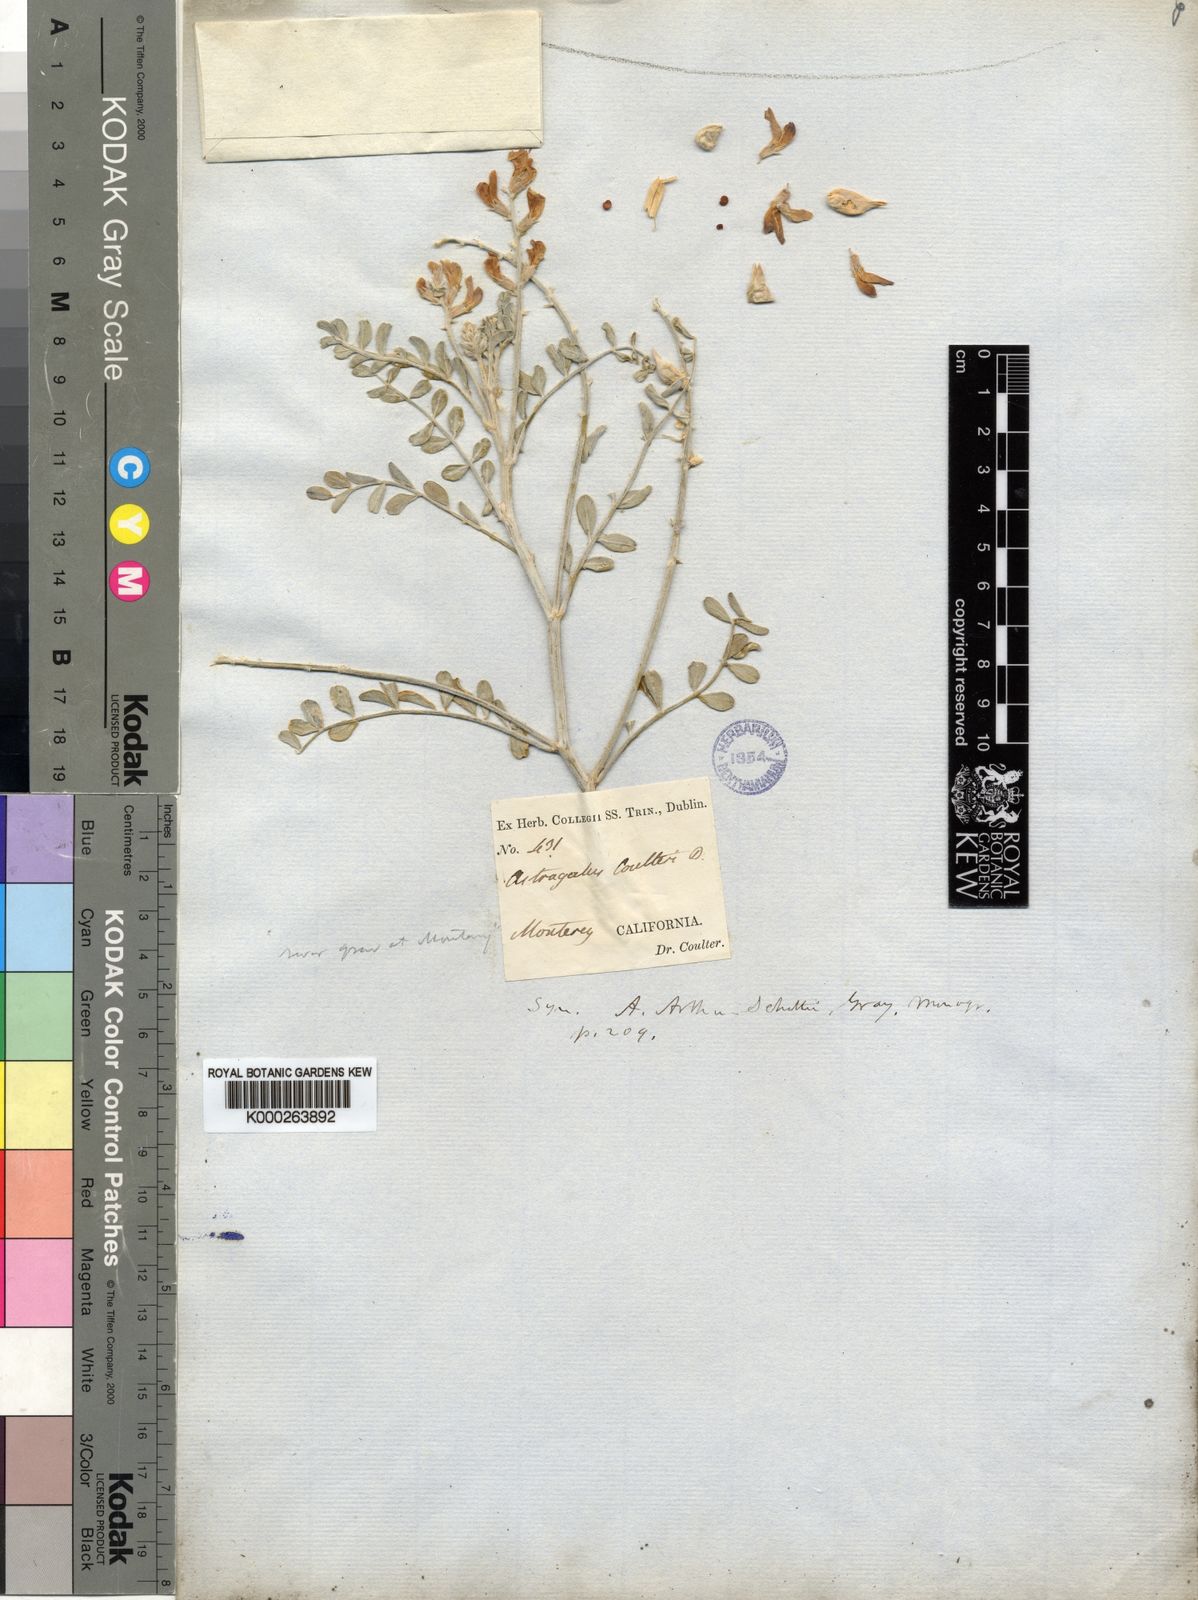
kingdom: Plantae
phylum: Tracheophyta
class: Magnoliopsida
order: Fabales
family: Fabaceae
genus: Astragalus
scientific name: Astragalus lentiginosus
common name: Freckled milkvetch
